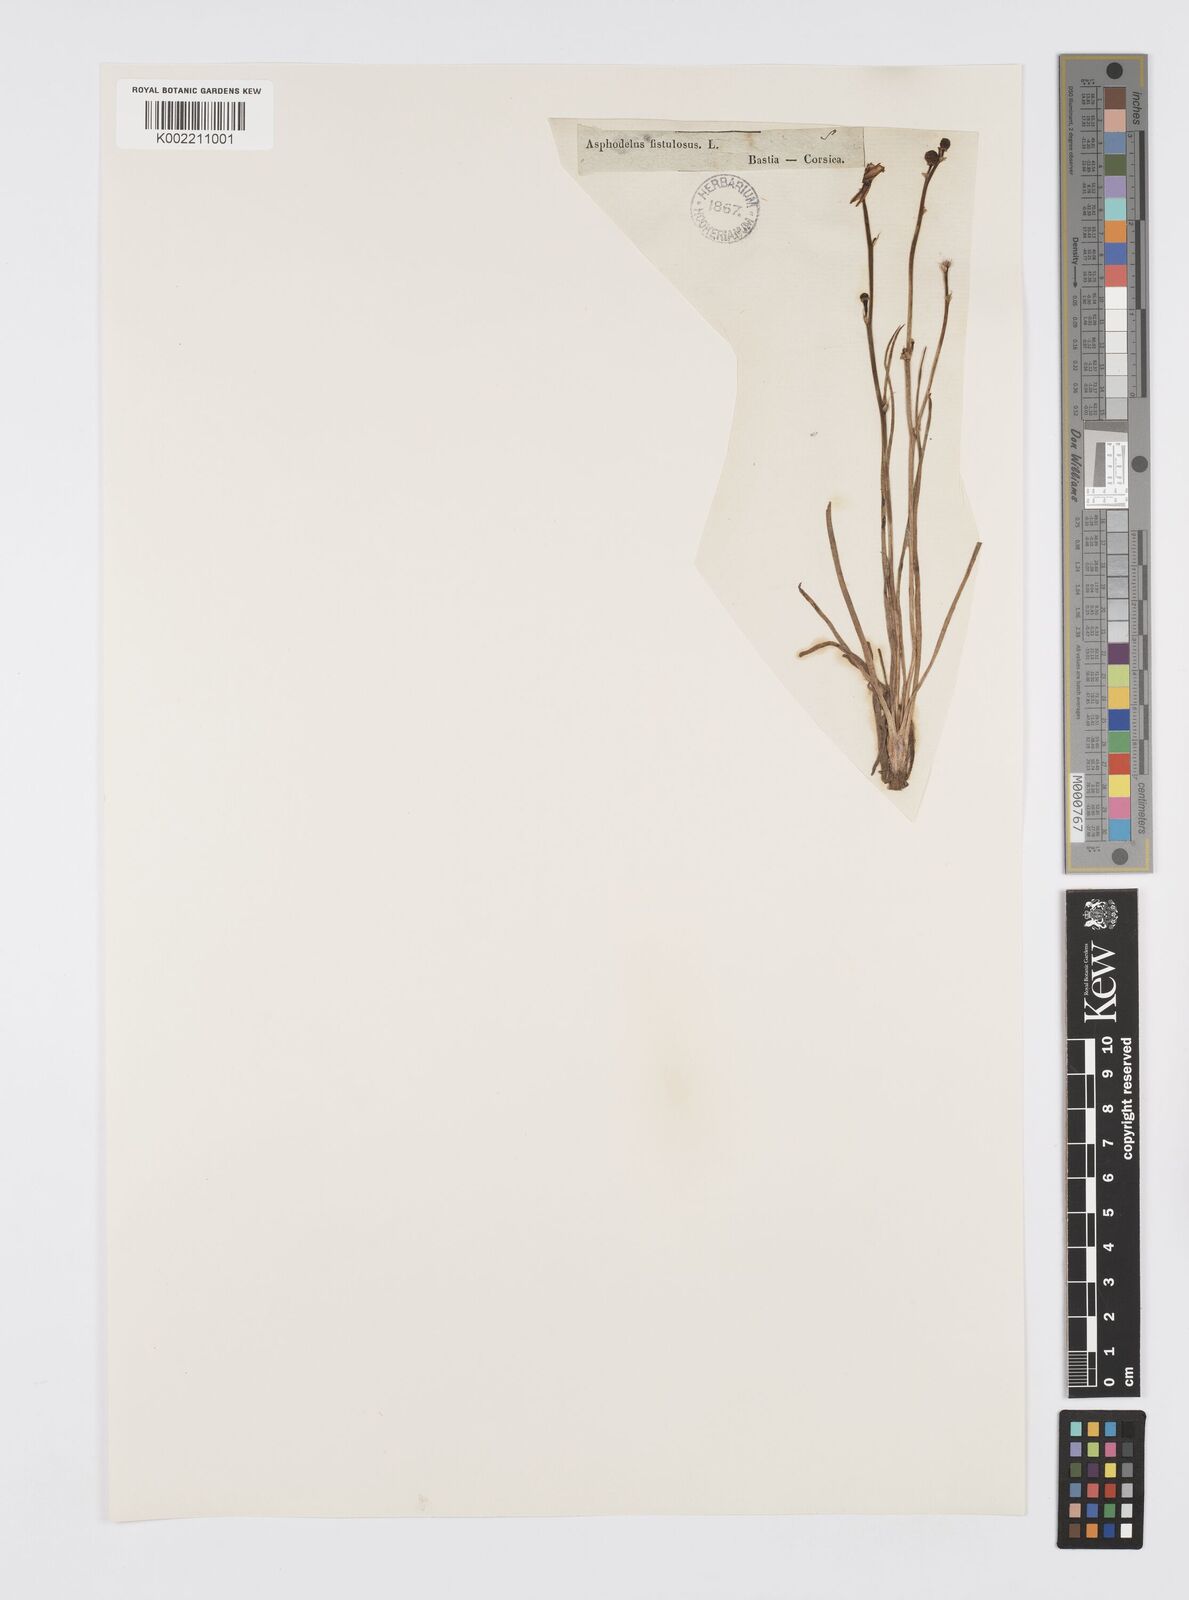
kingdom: Plantae
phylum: Tracheophyta
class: Liliopsida
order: Asparagales
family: Asphodelaceae
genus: Asphodelus
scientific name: Asphodelus fistulosus
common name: Onionweed
